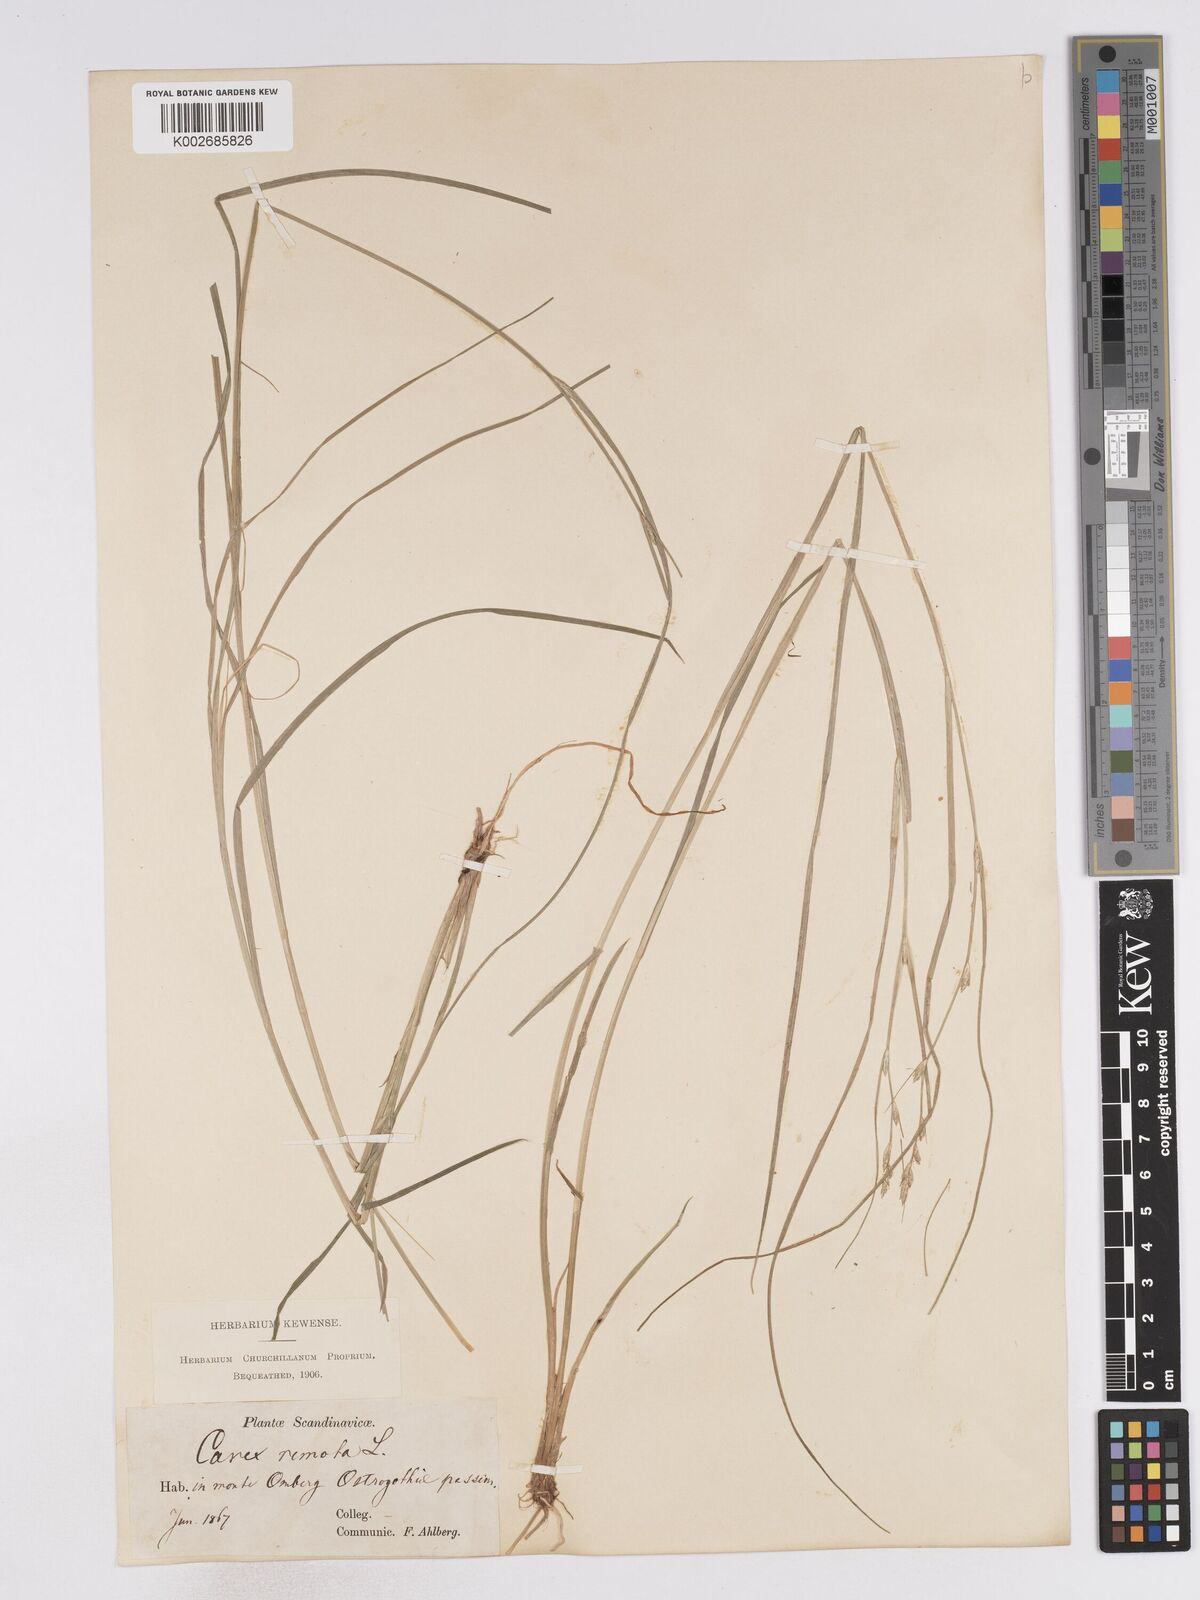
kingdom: Plantae
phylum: Tracheophyta
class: Liliopsida
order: Poales
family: Cyperaceae
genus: Carex
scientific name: Carex remota
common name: Remote sedge
